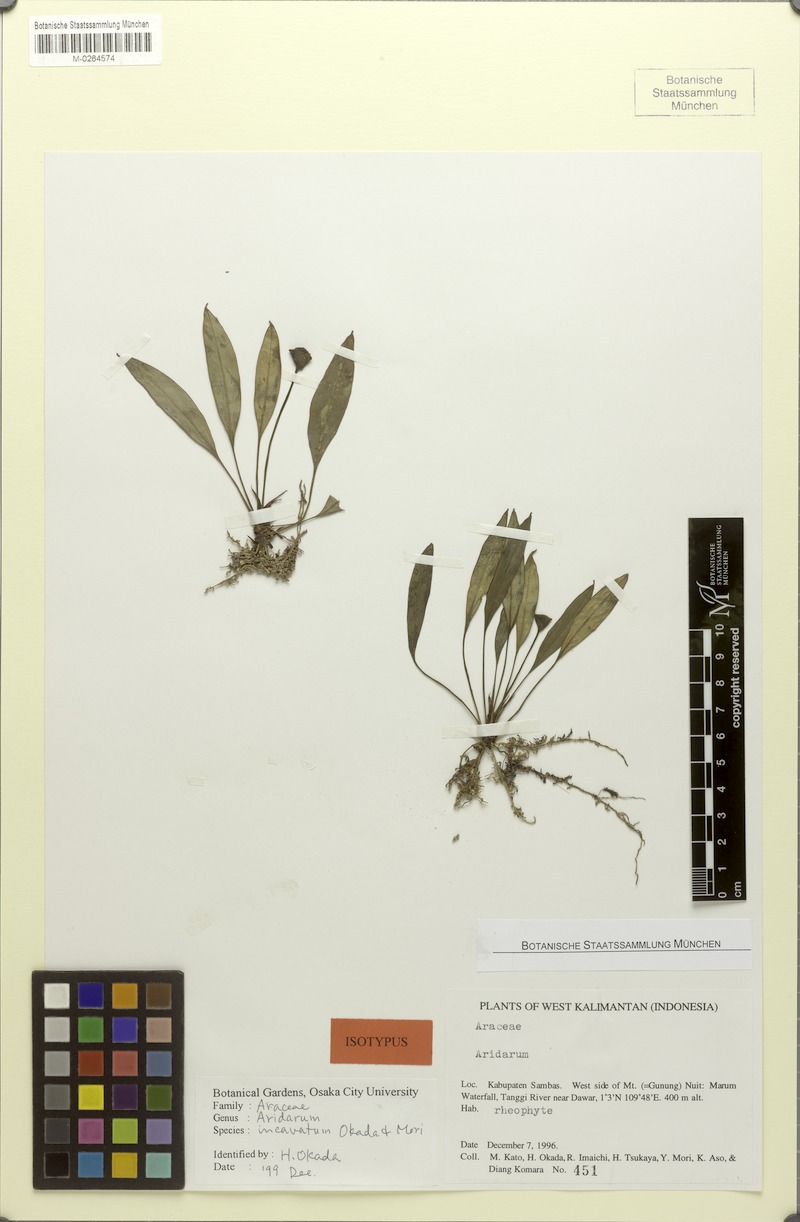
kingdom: Plantae
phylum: Tracheophyta
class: Liliopsida
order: Alismatales
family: Araceae
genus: Aridarum
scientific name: Aridarum incavatum
